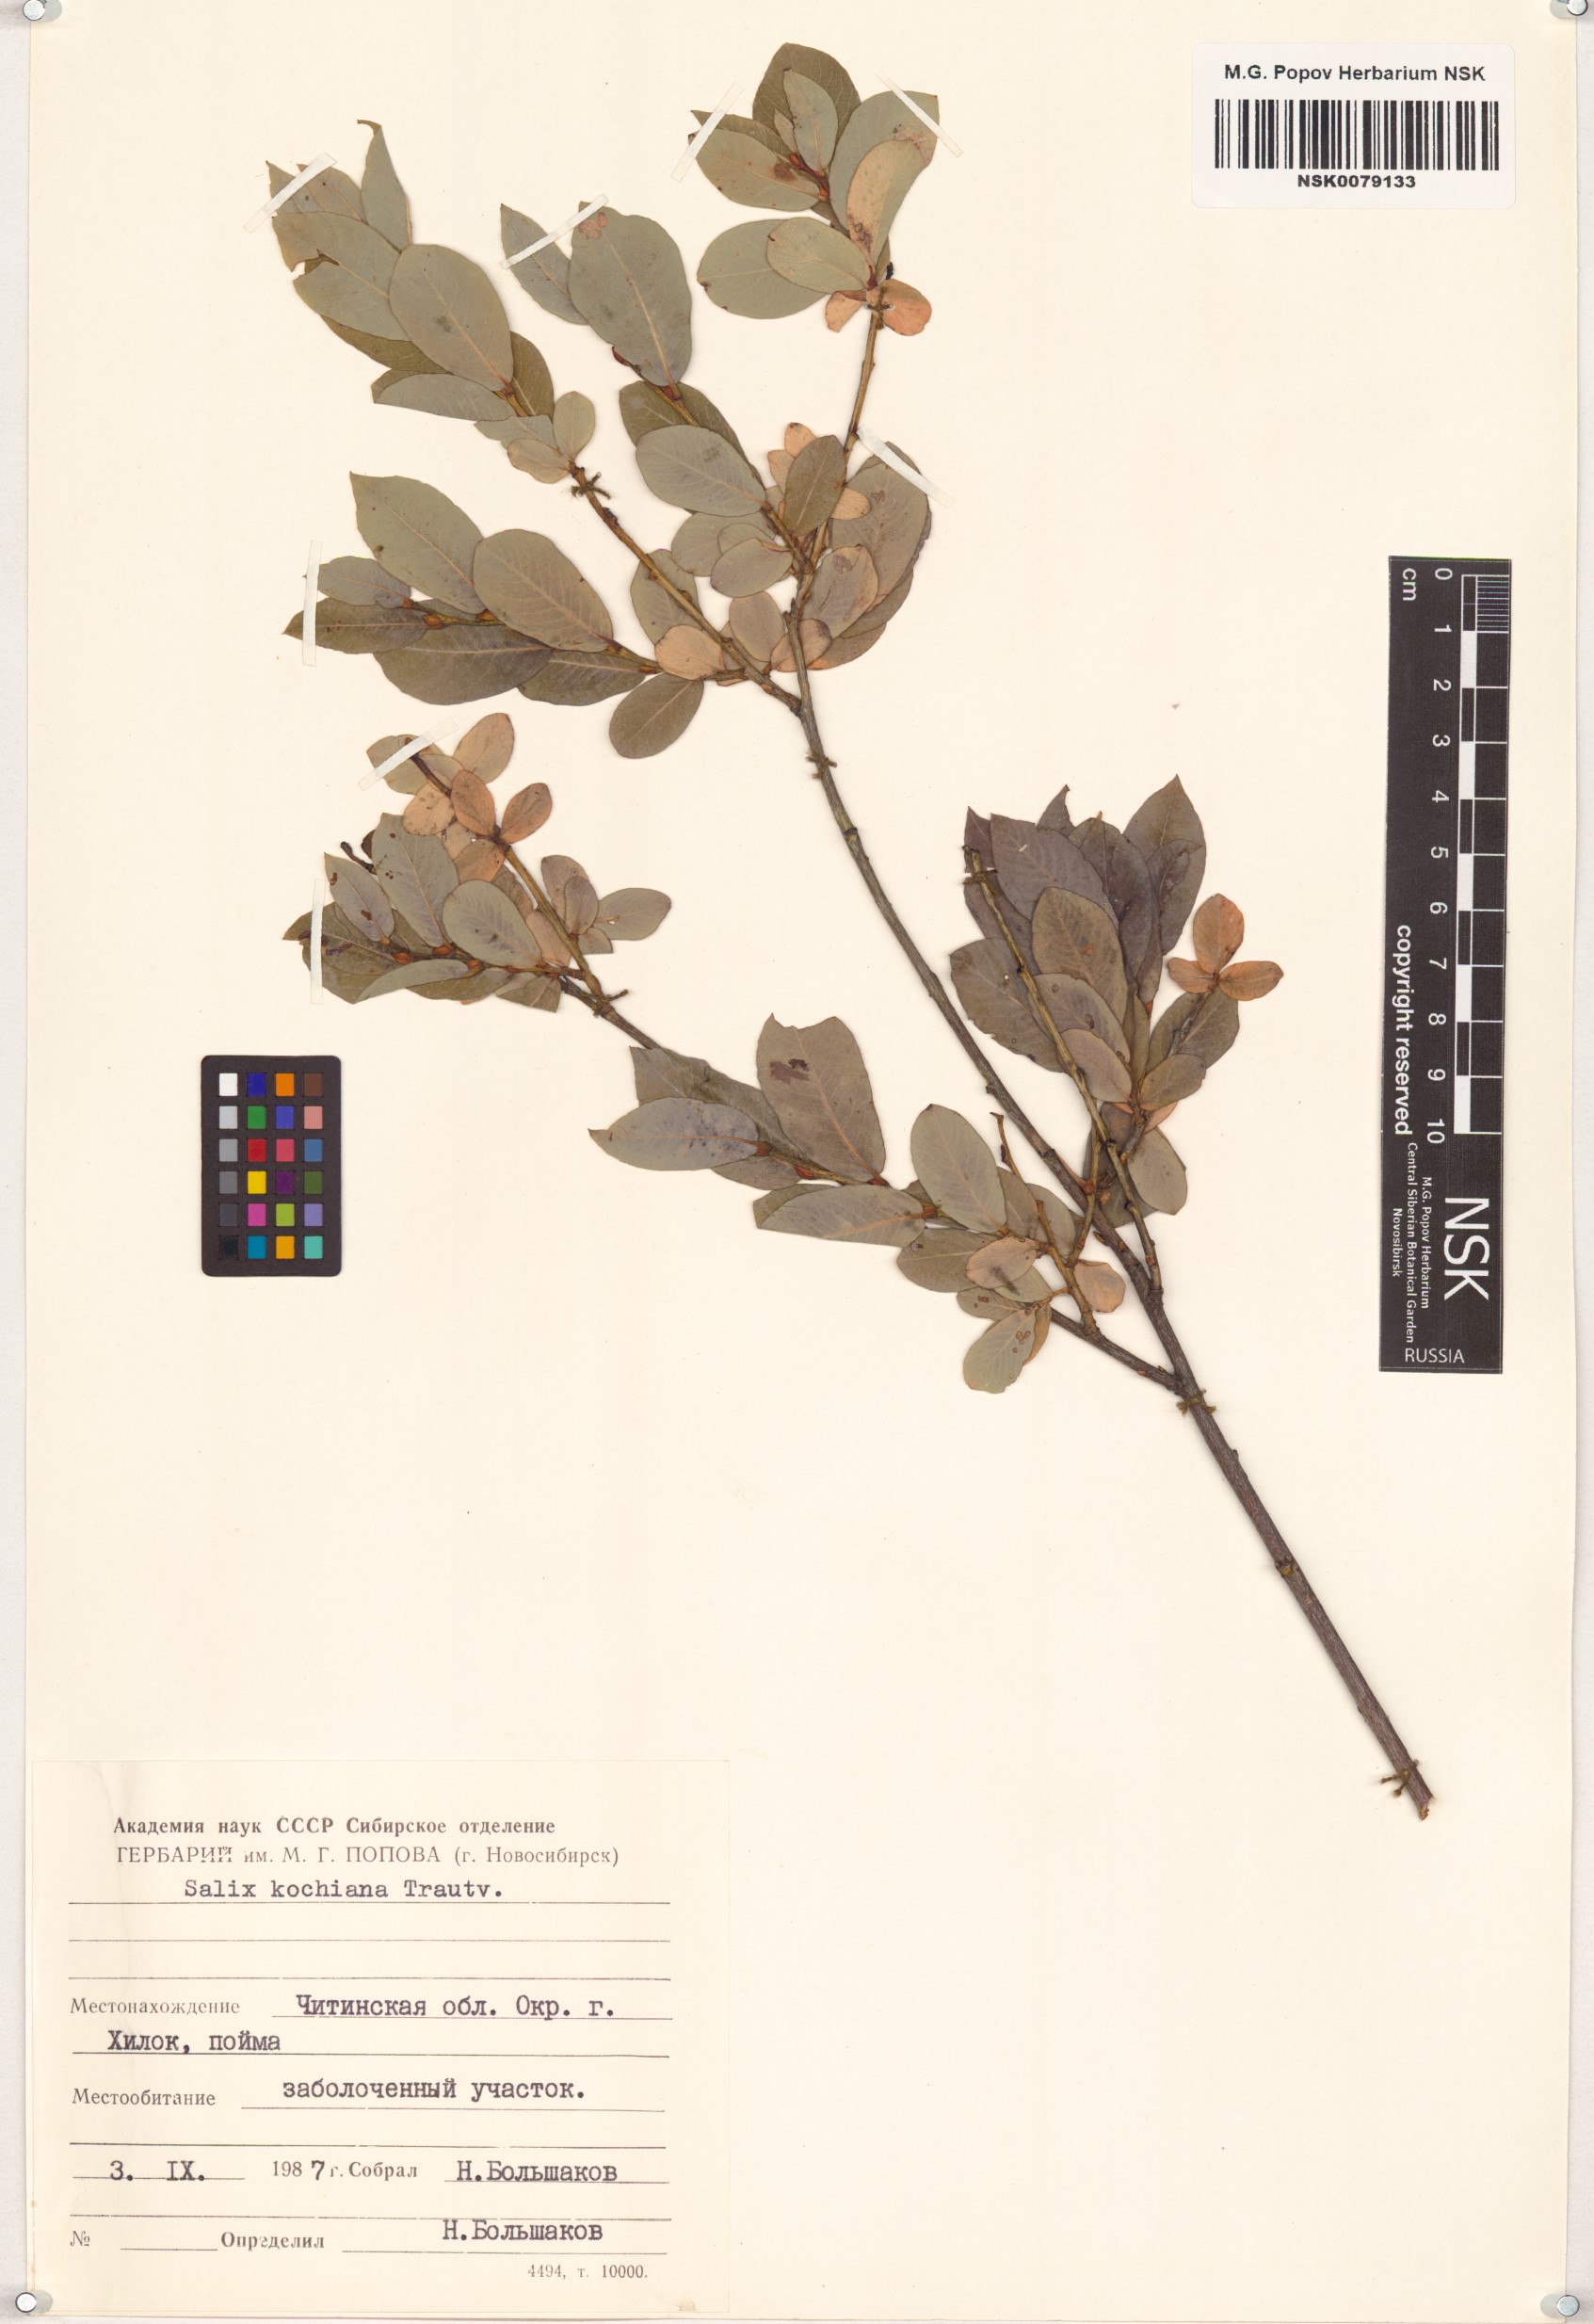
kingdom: Plantae
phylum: Tracheophyta
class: Magnoliopsida
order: Malpighiales
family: Salicaceae
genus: Salix
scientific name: Salix kochiana
